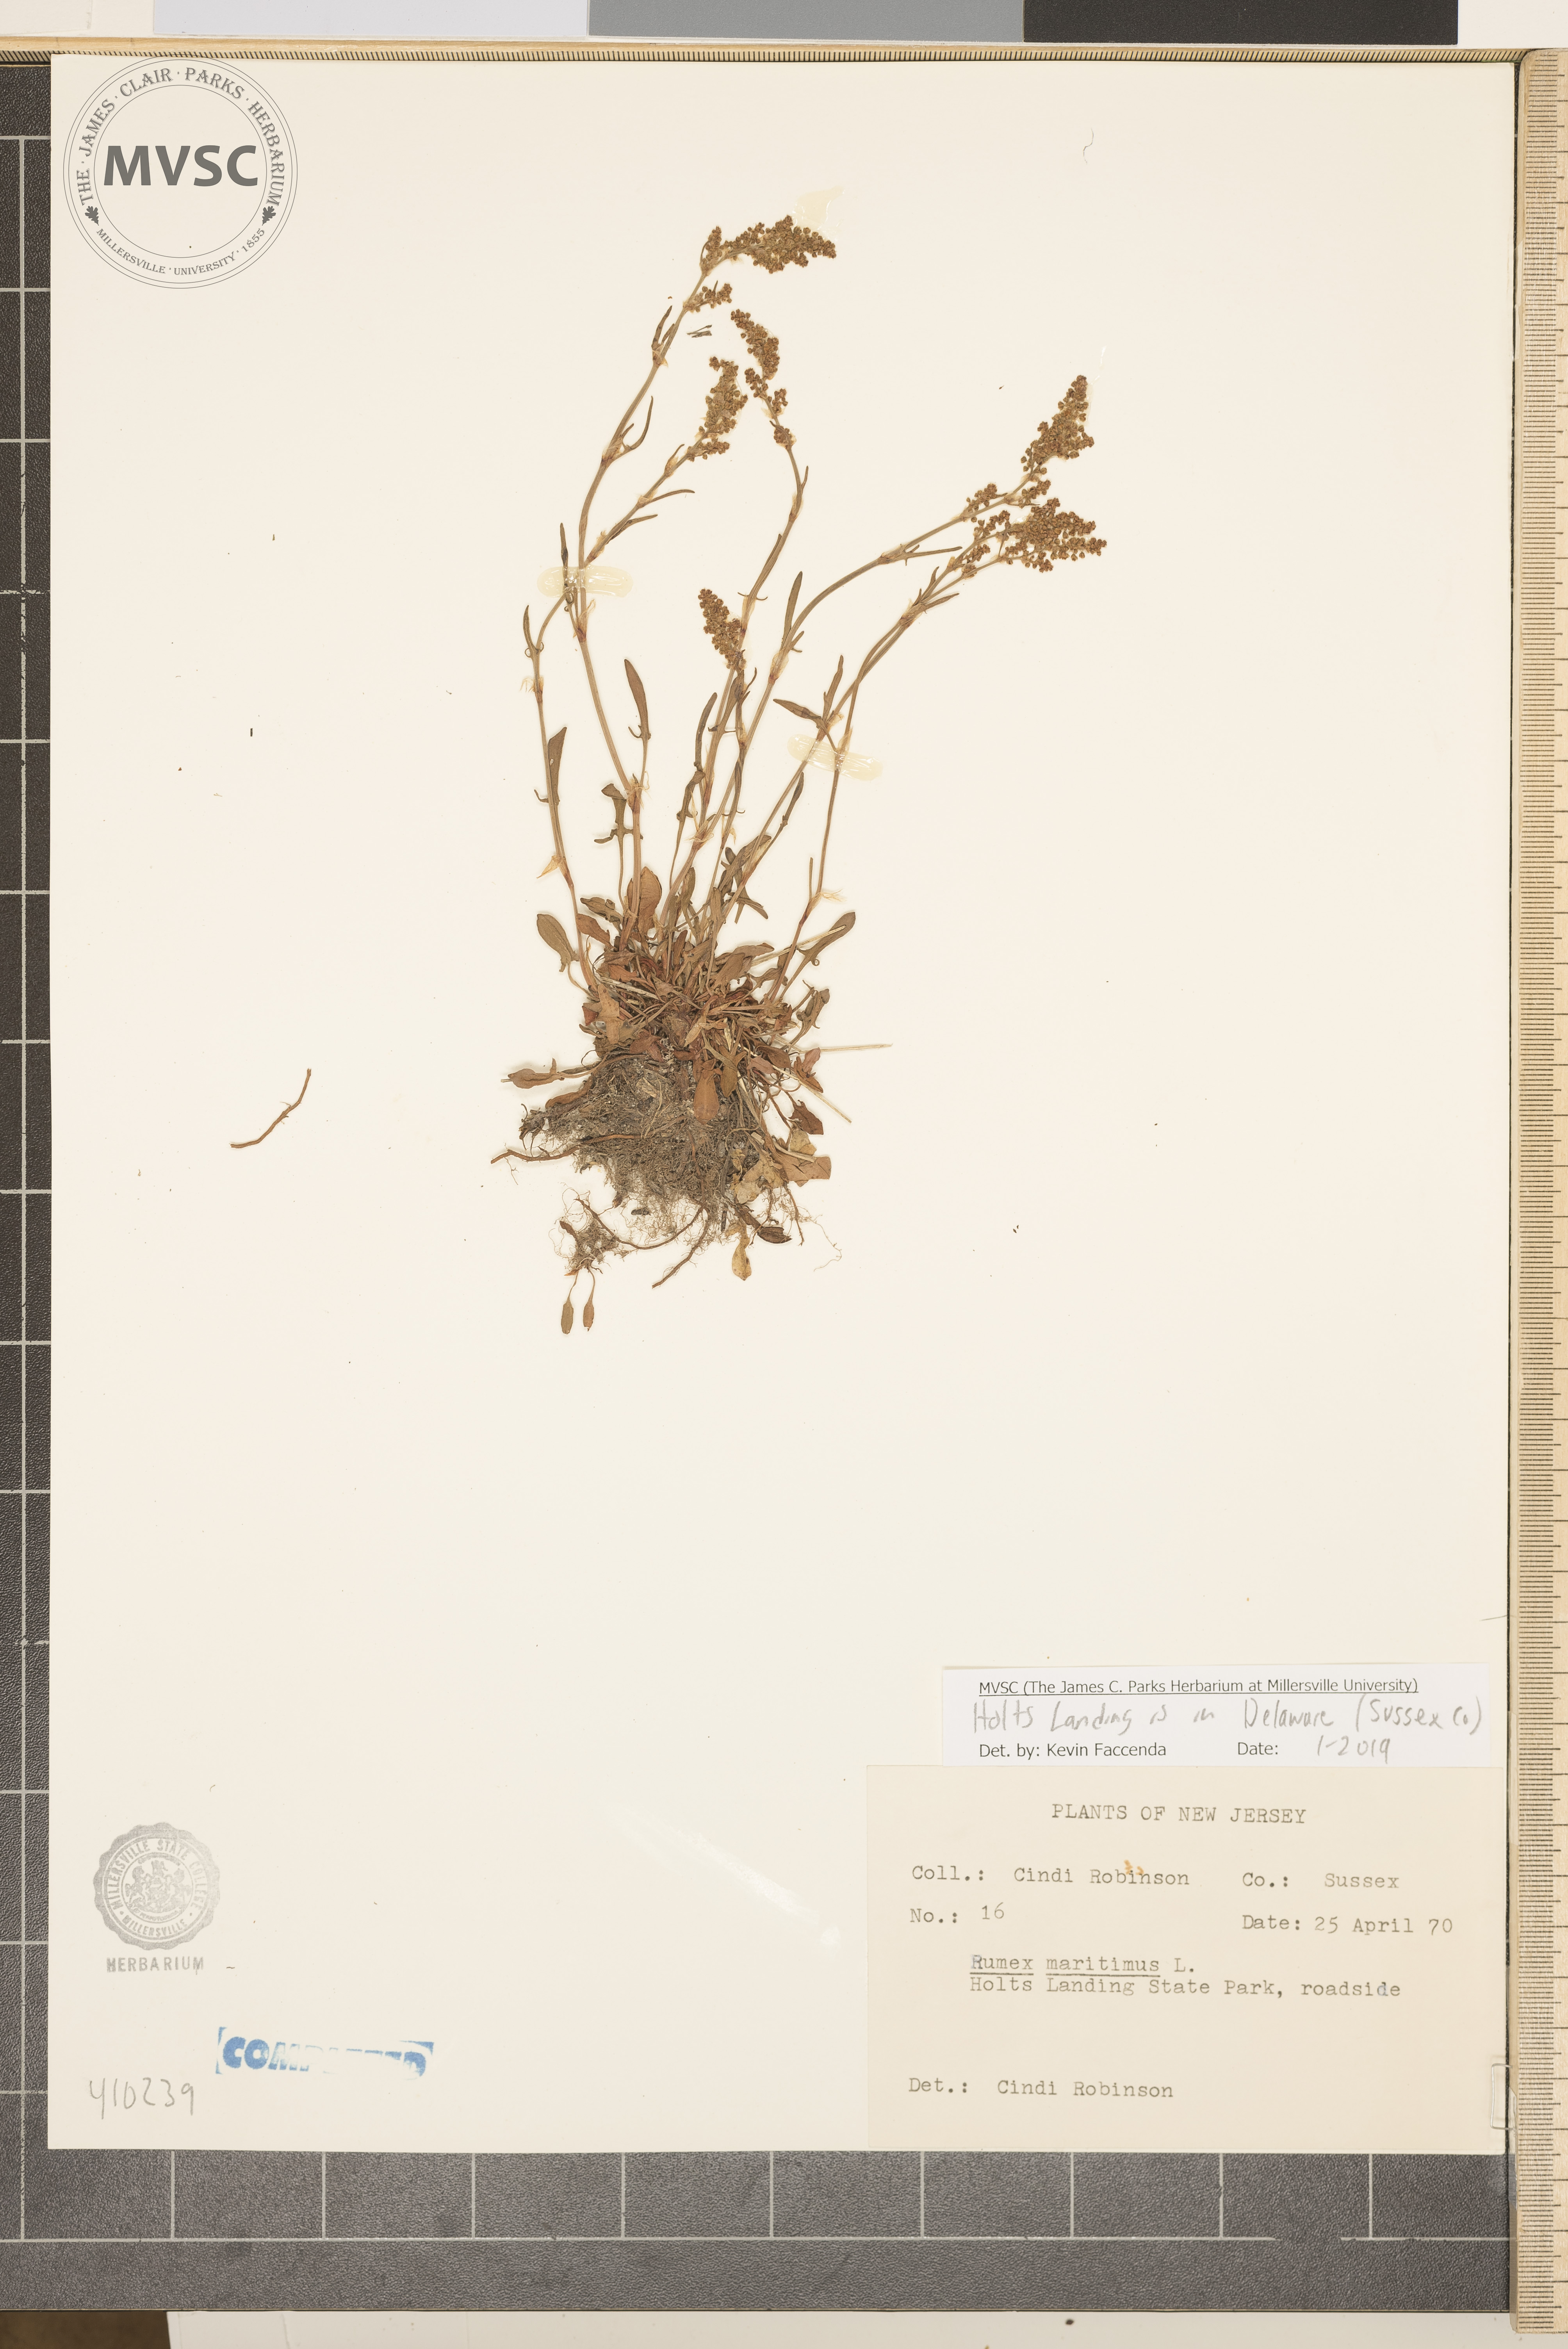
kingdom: Plantae
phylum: Tracheophyta
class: Magnoliopsida
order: Caryophyllales
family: Polygonaceae
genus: Rumex
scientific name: Rumex acetosella
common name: Common sheep sorrel
